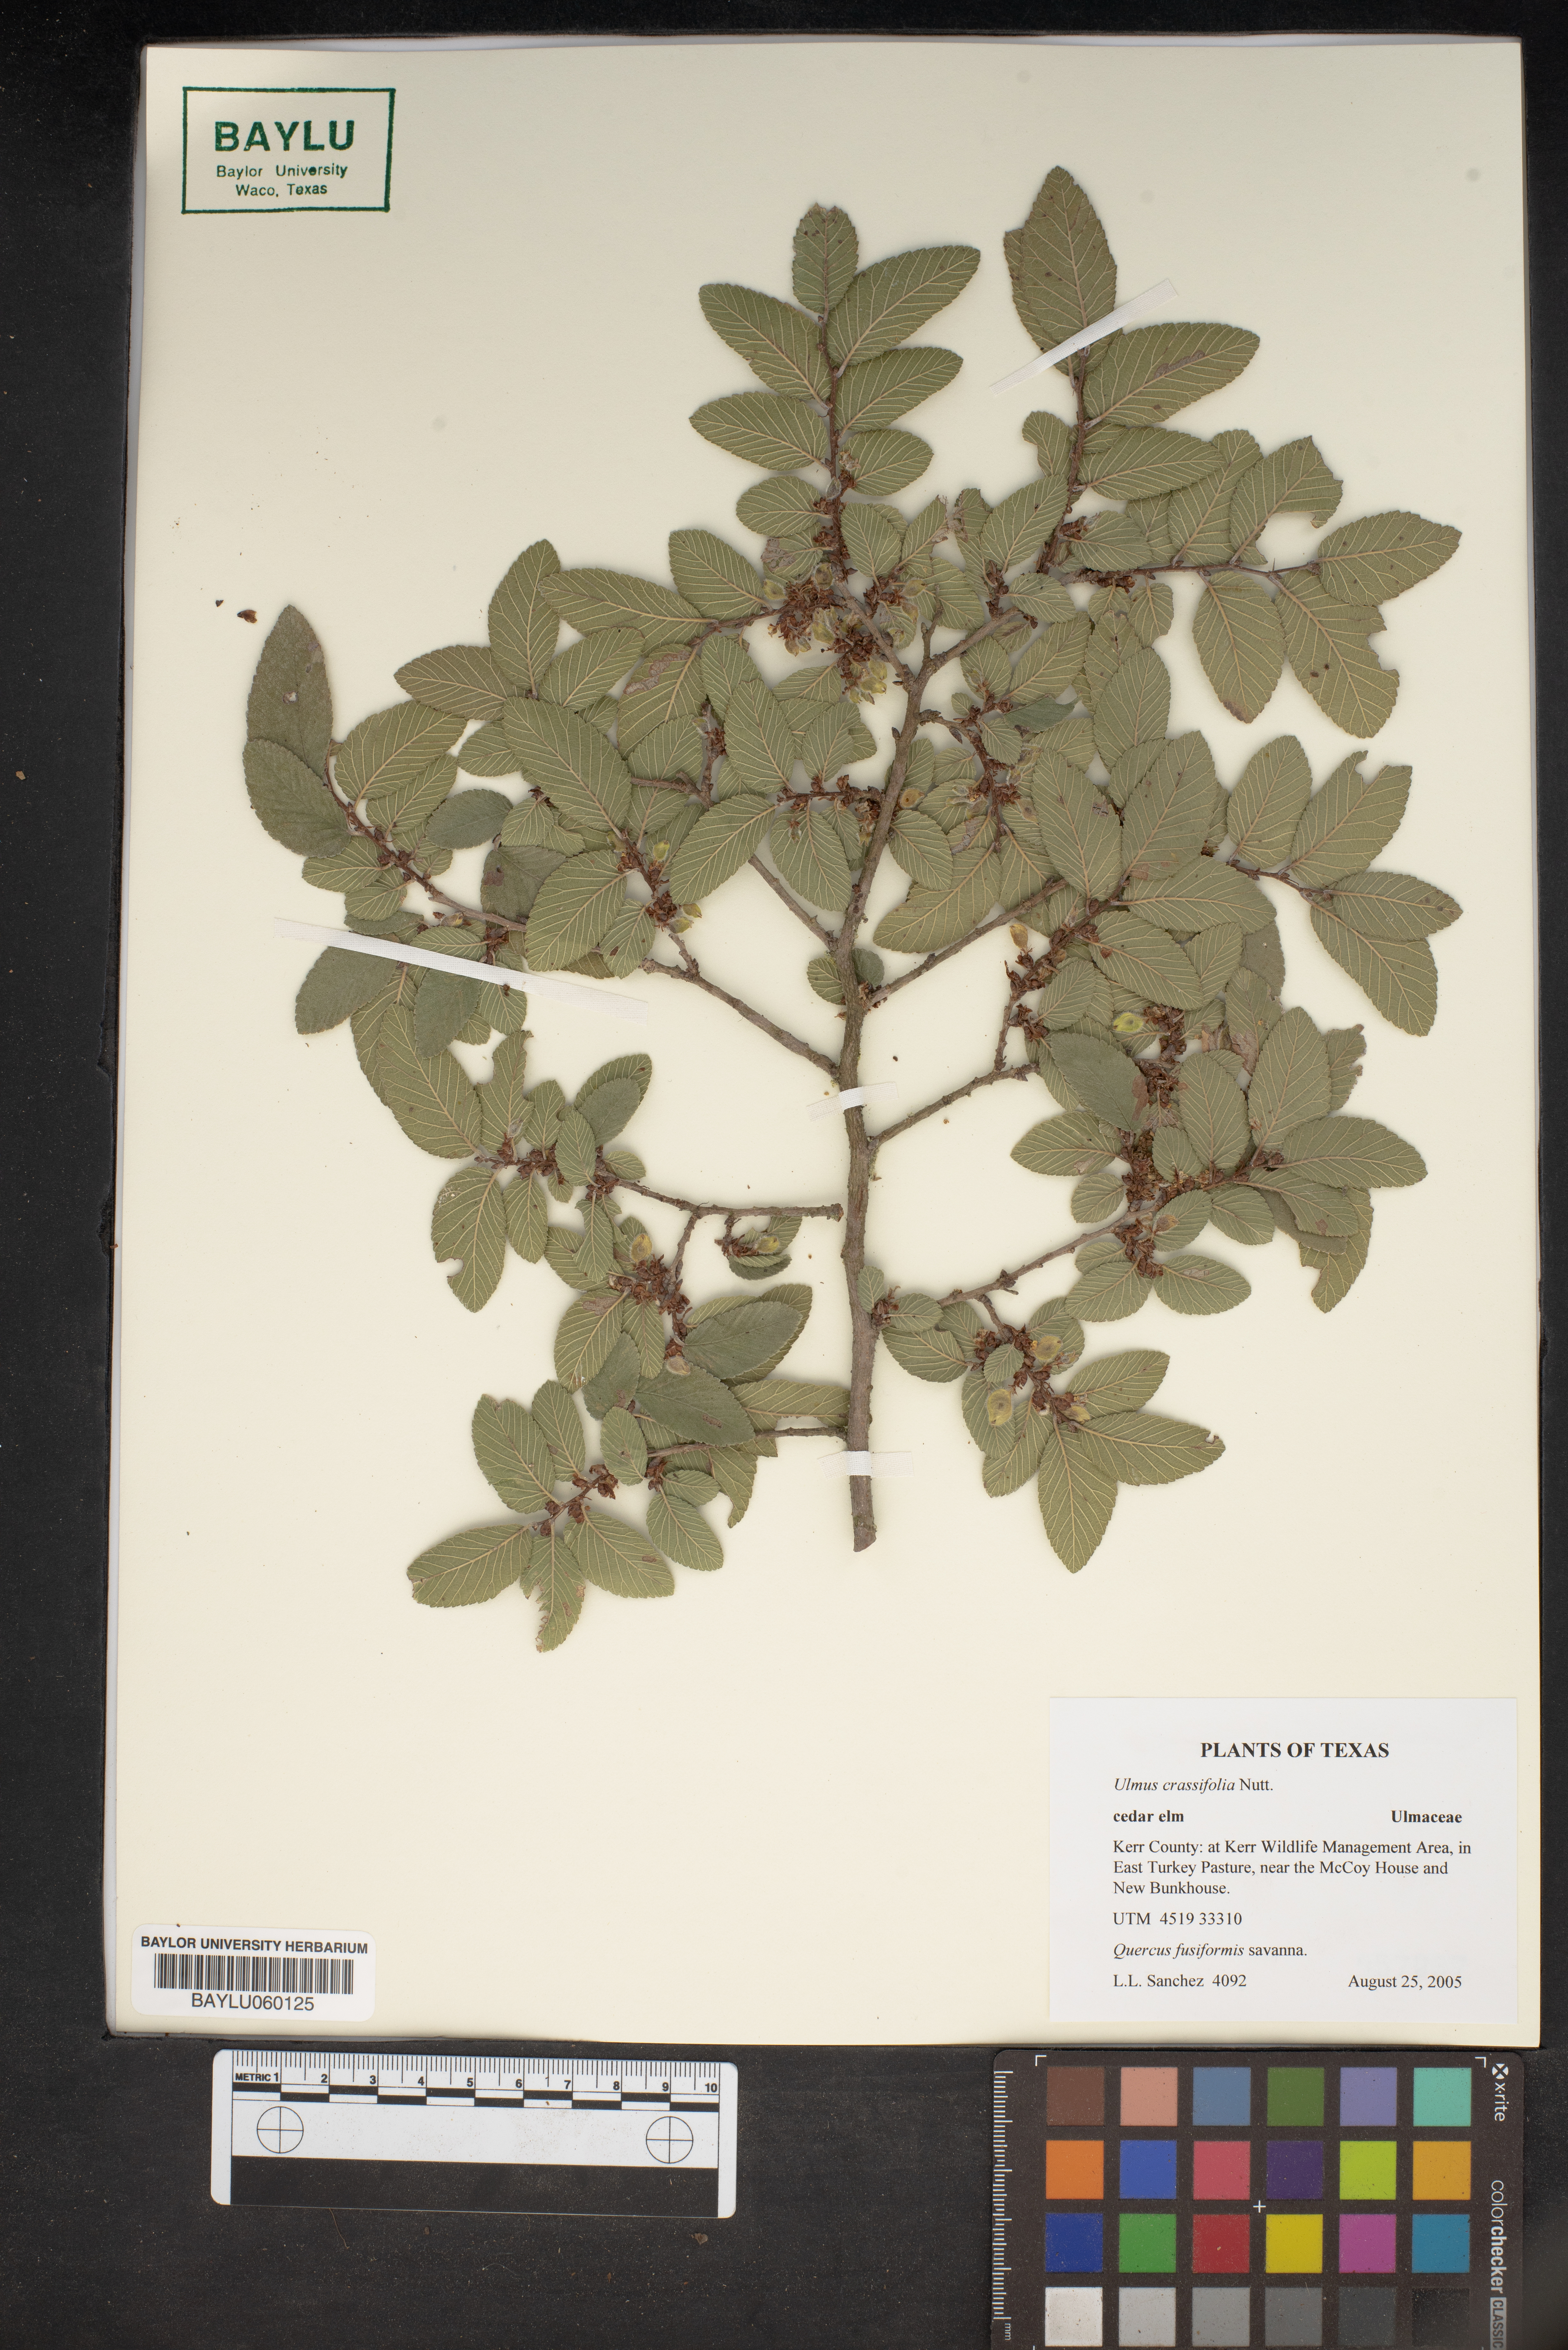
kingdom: Plantae
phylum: Tracheophyta
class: Magnoliopsida
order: Rosales
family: Ulmaceae
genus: Ulmus
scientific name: Ulmus crassifolia
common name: Basket elm
